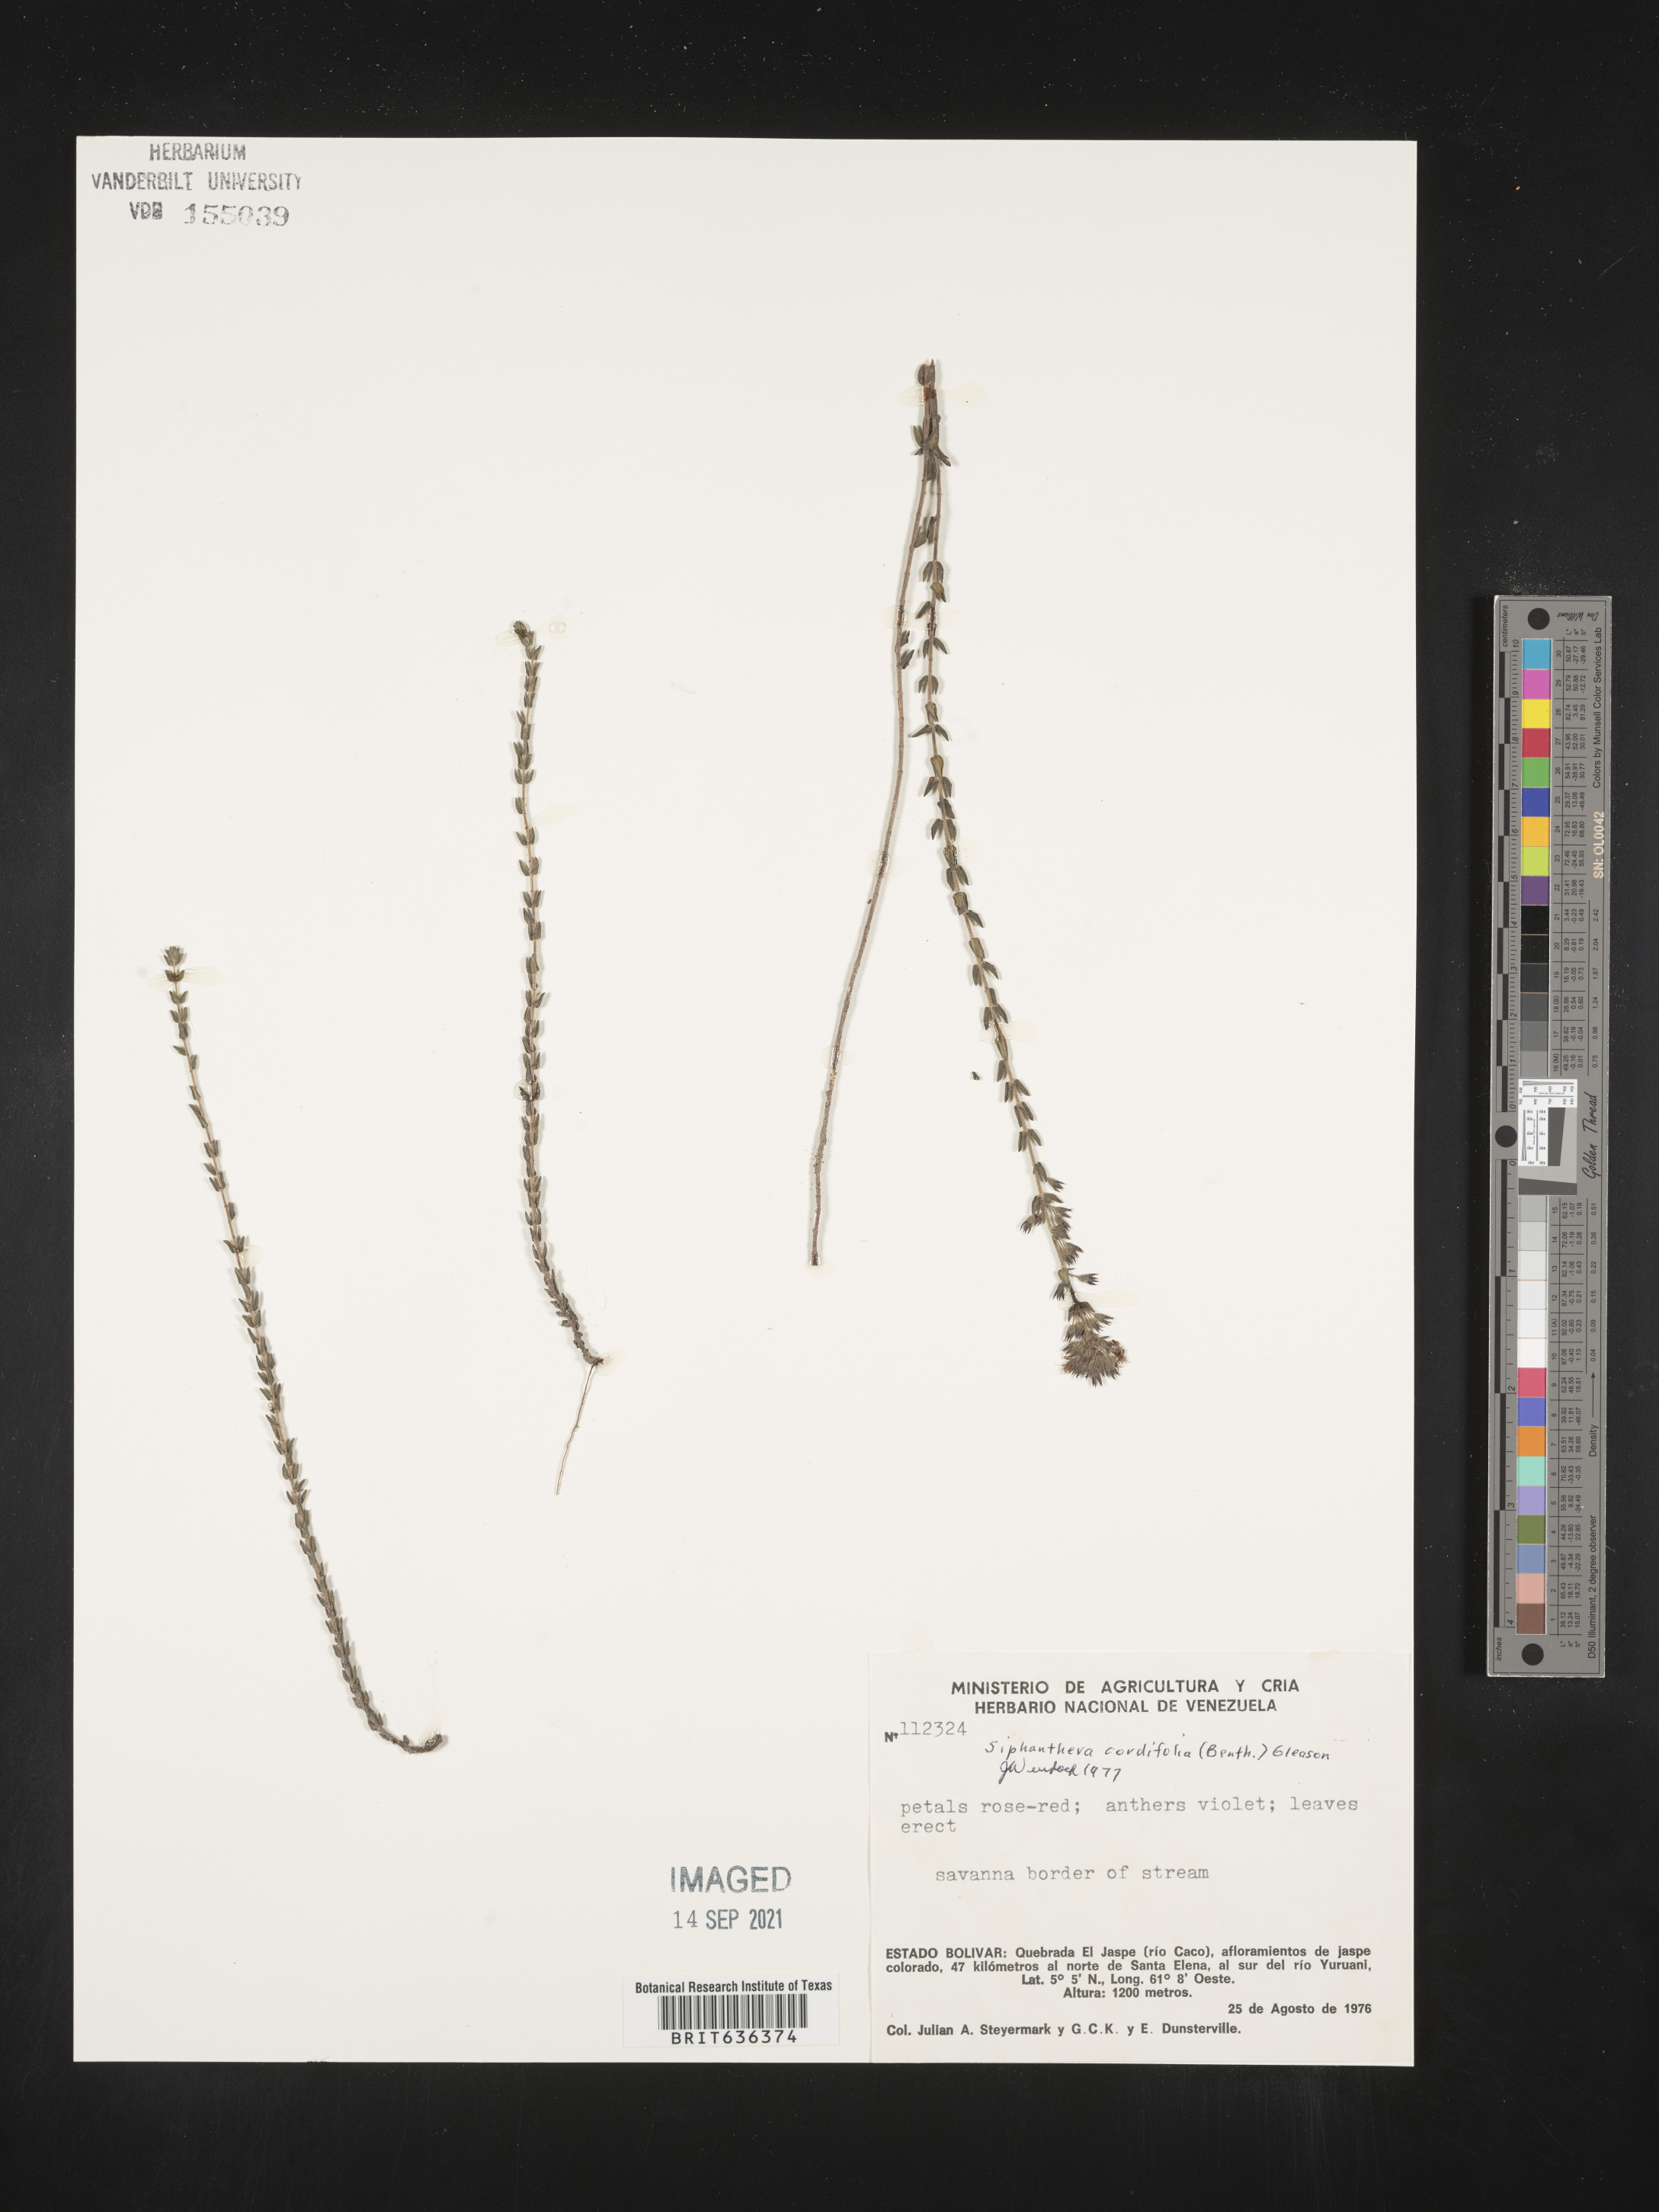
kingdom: Plantae
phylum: Tracheophyta
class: Magnoliopsida
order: Myrtales
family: Melastomataceae
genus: Siphanthera
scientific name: Siphanthera
